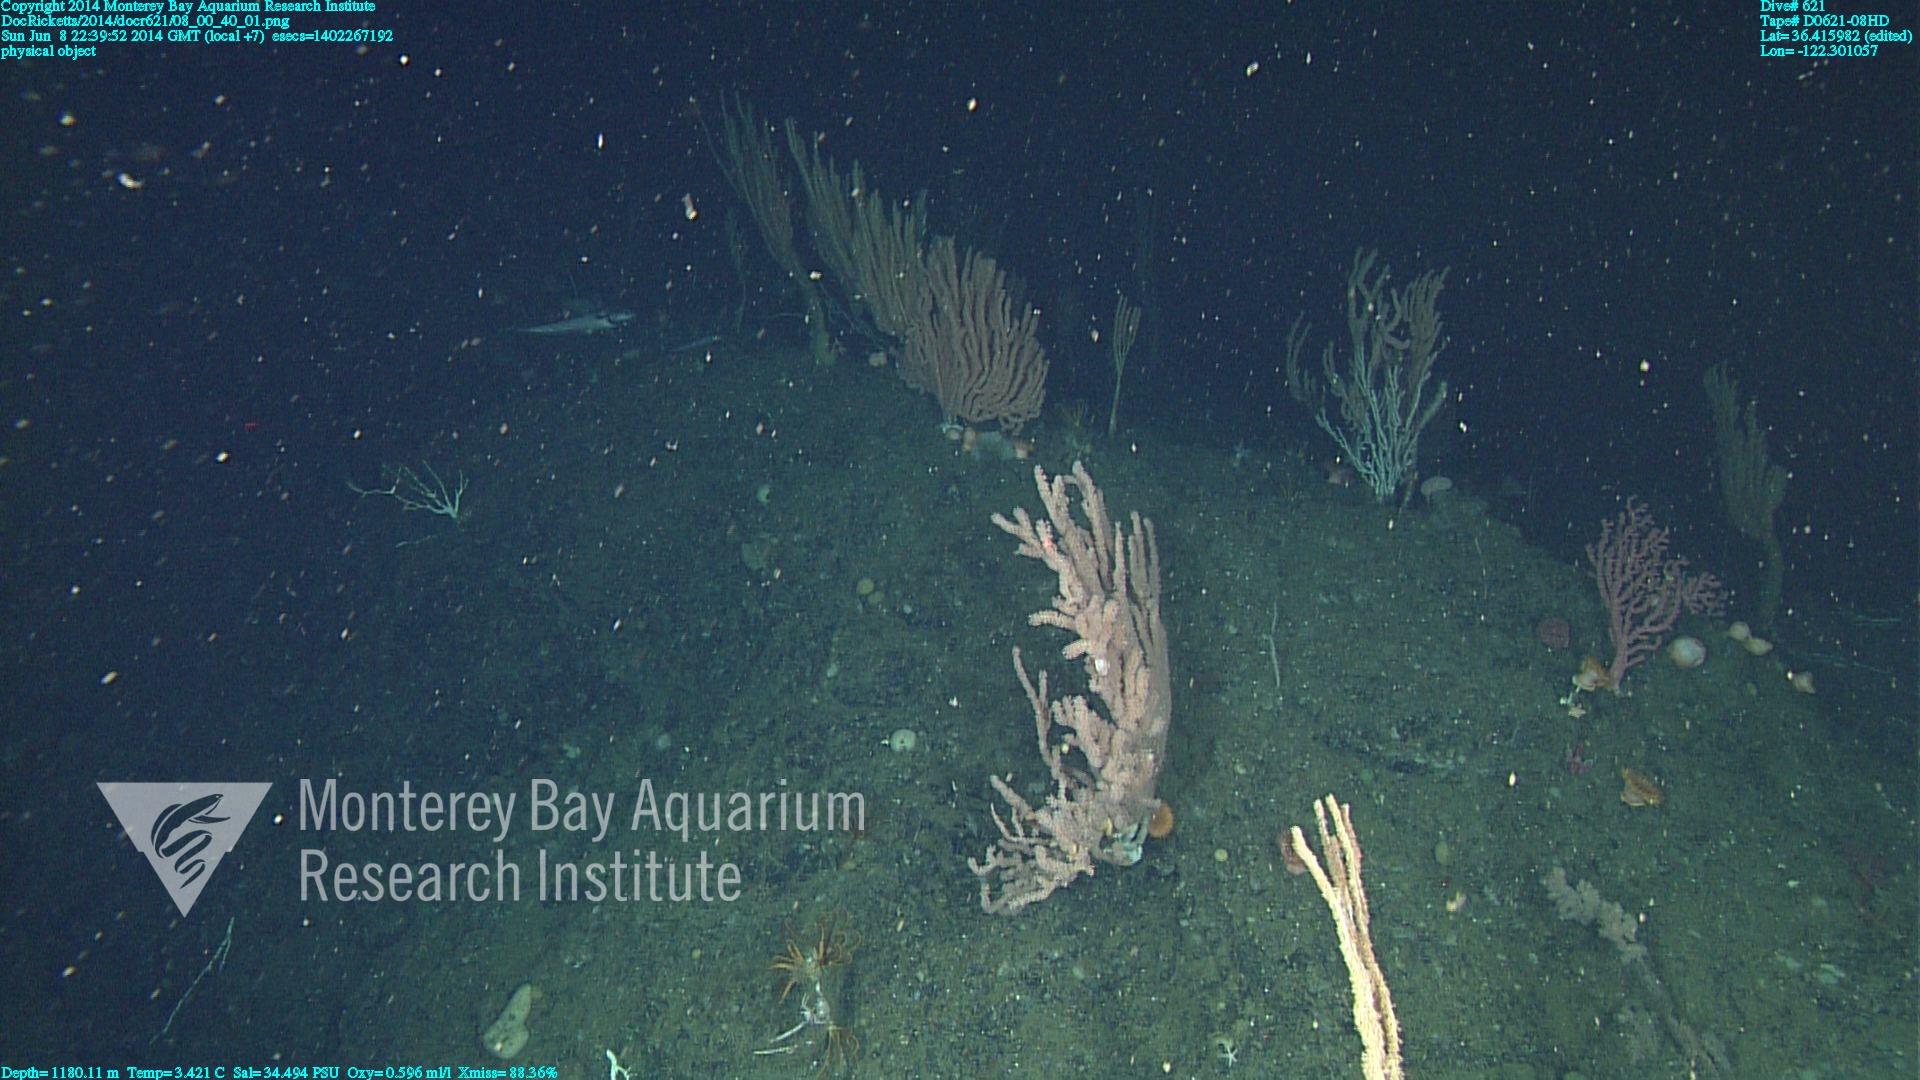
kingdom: Animalia
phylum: Cnidaria
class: Anthozoa
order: Scleralcyonacea
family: Keratoisididae
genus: Keratoisis
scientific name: Keratoisis
